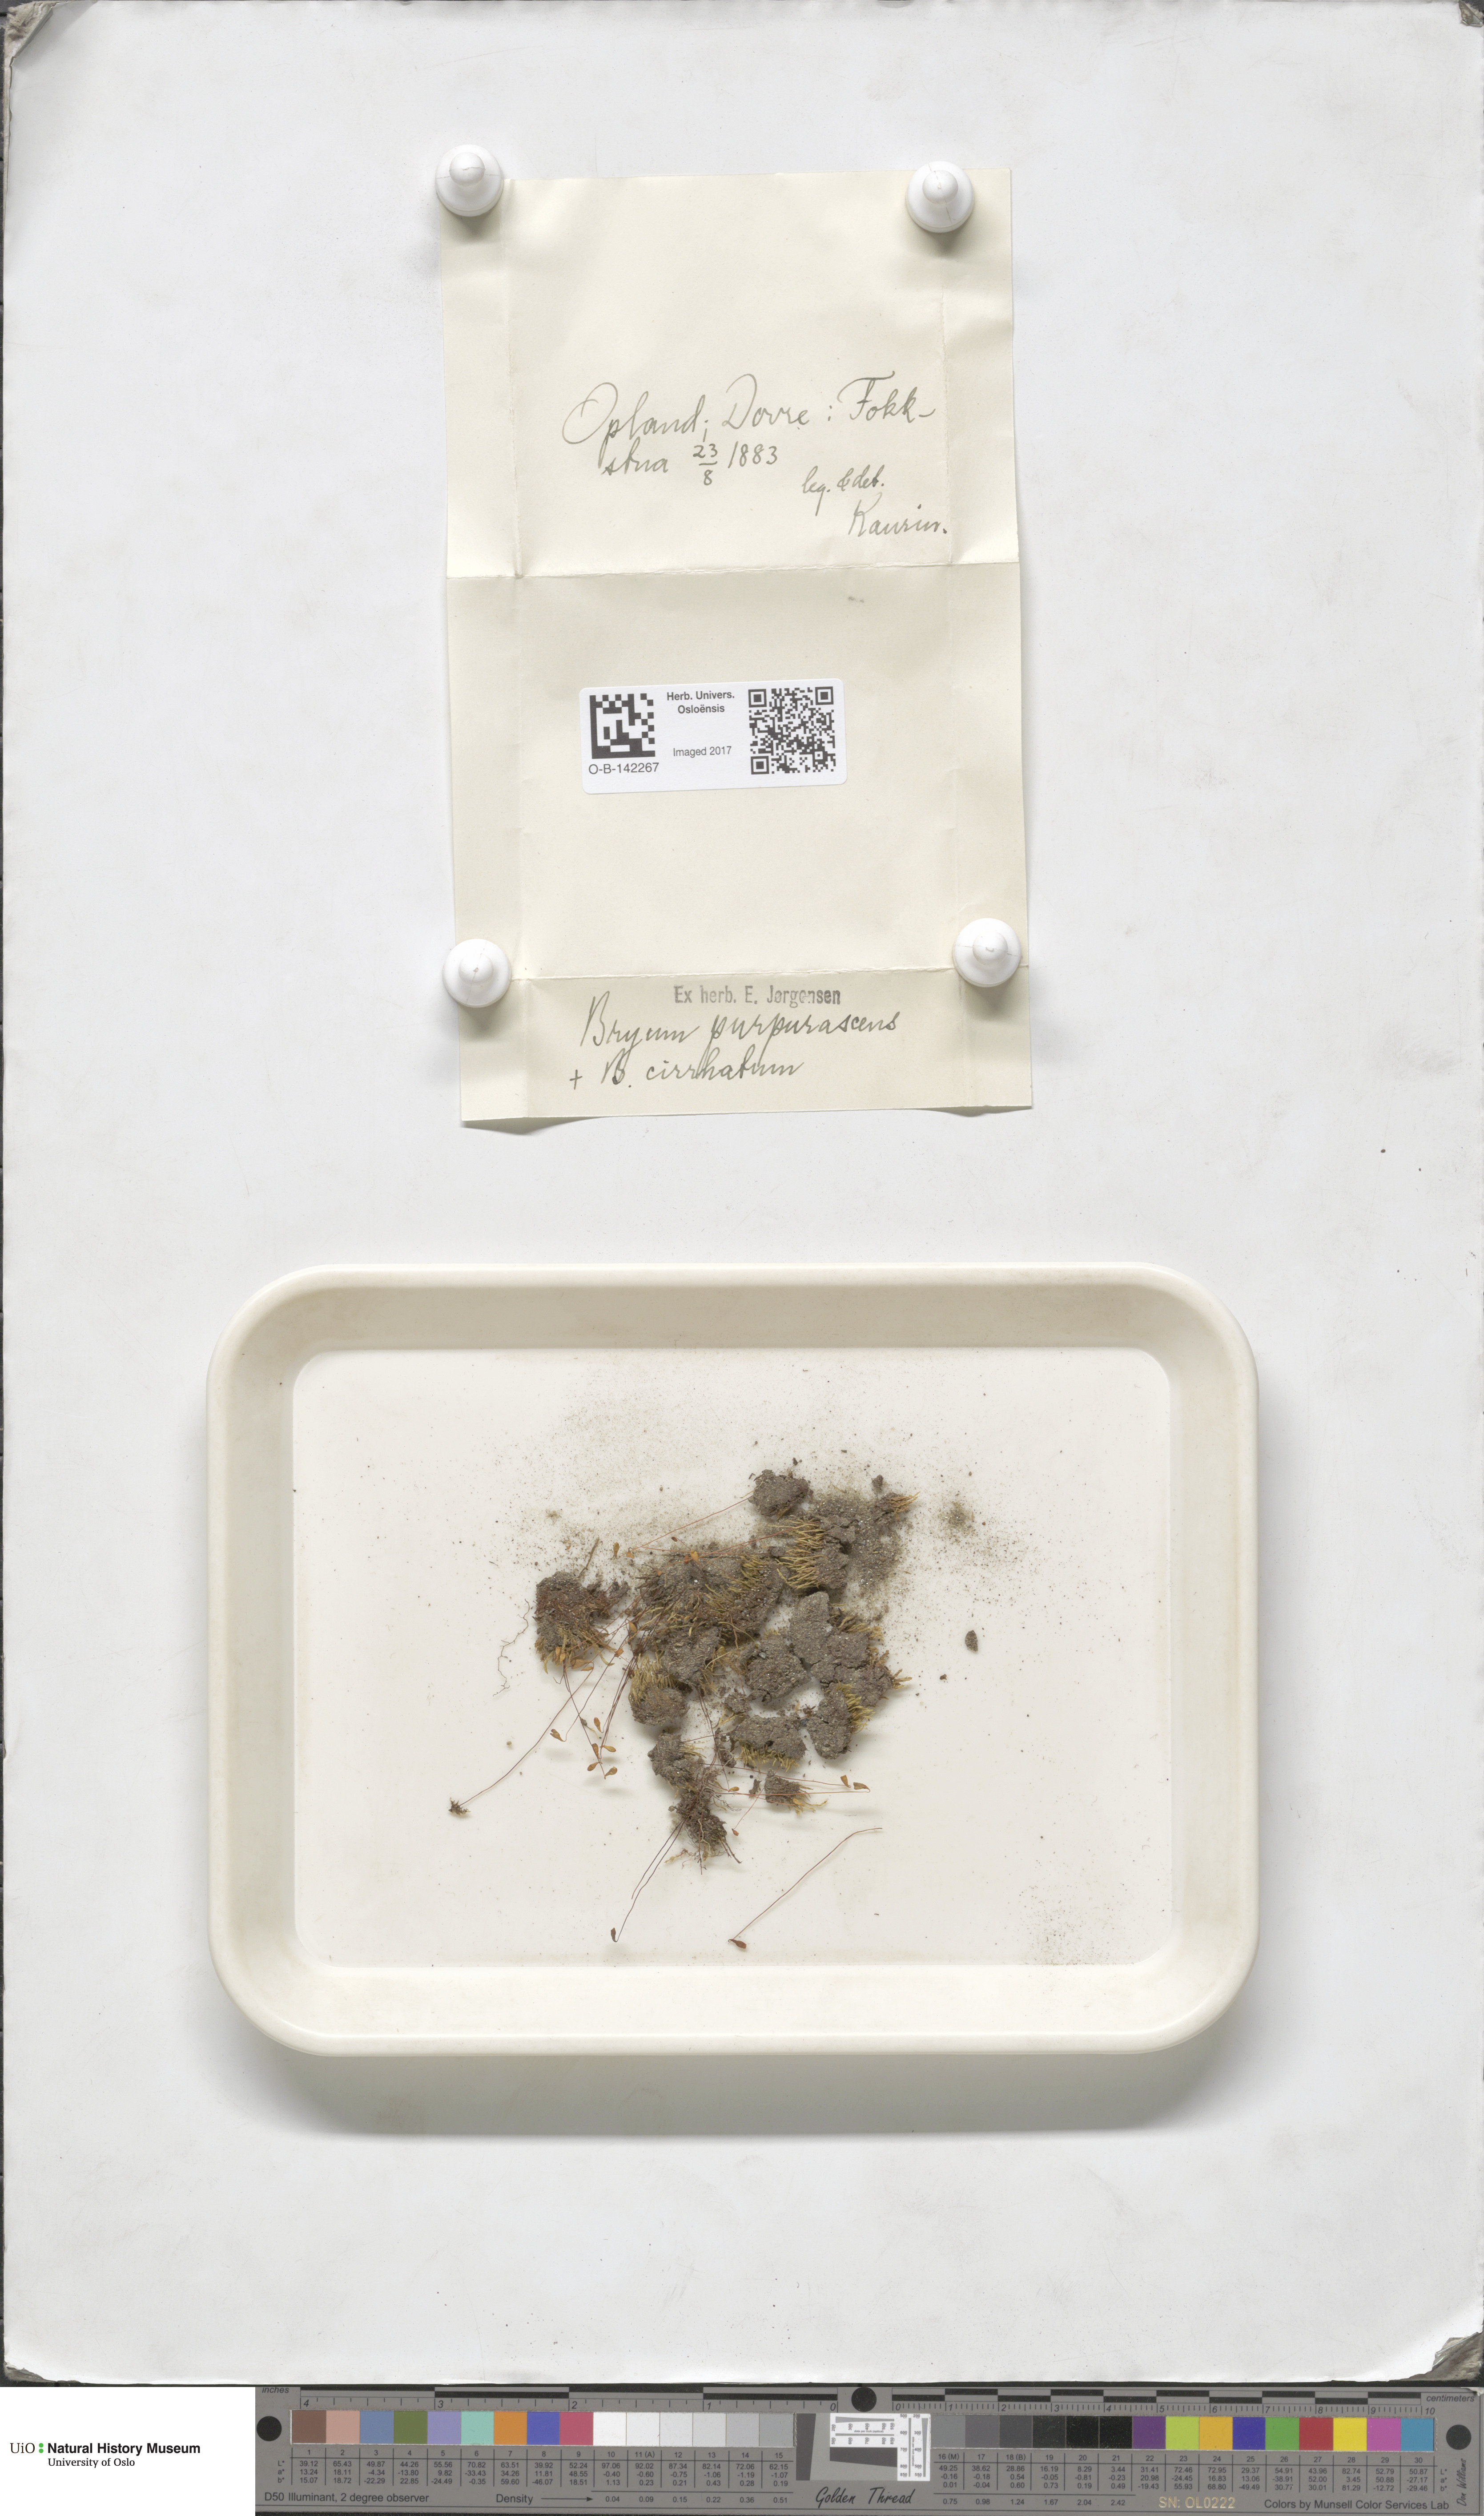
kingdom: Plantae
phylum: Bryophyta
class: Bryopsida
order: Bryales
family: Bryaceae
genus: Ptychostomum
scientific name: Ptychostomum arcticum
